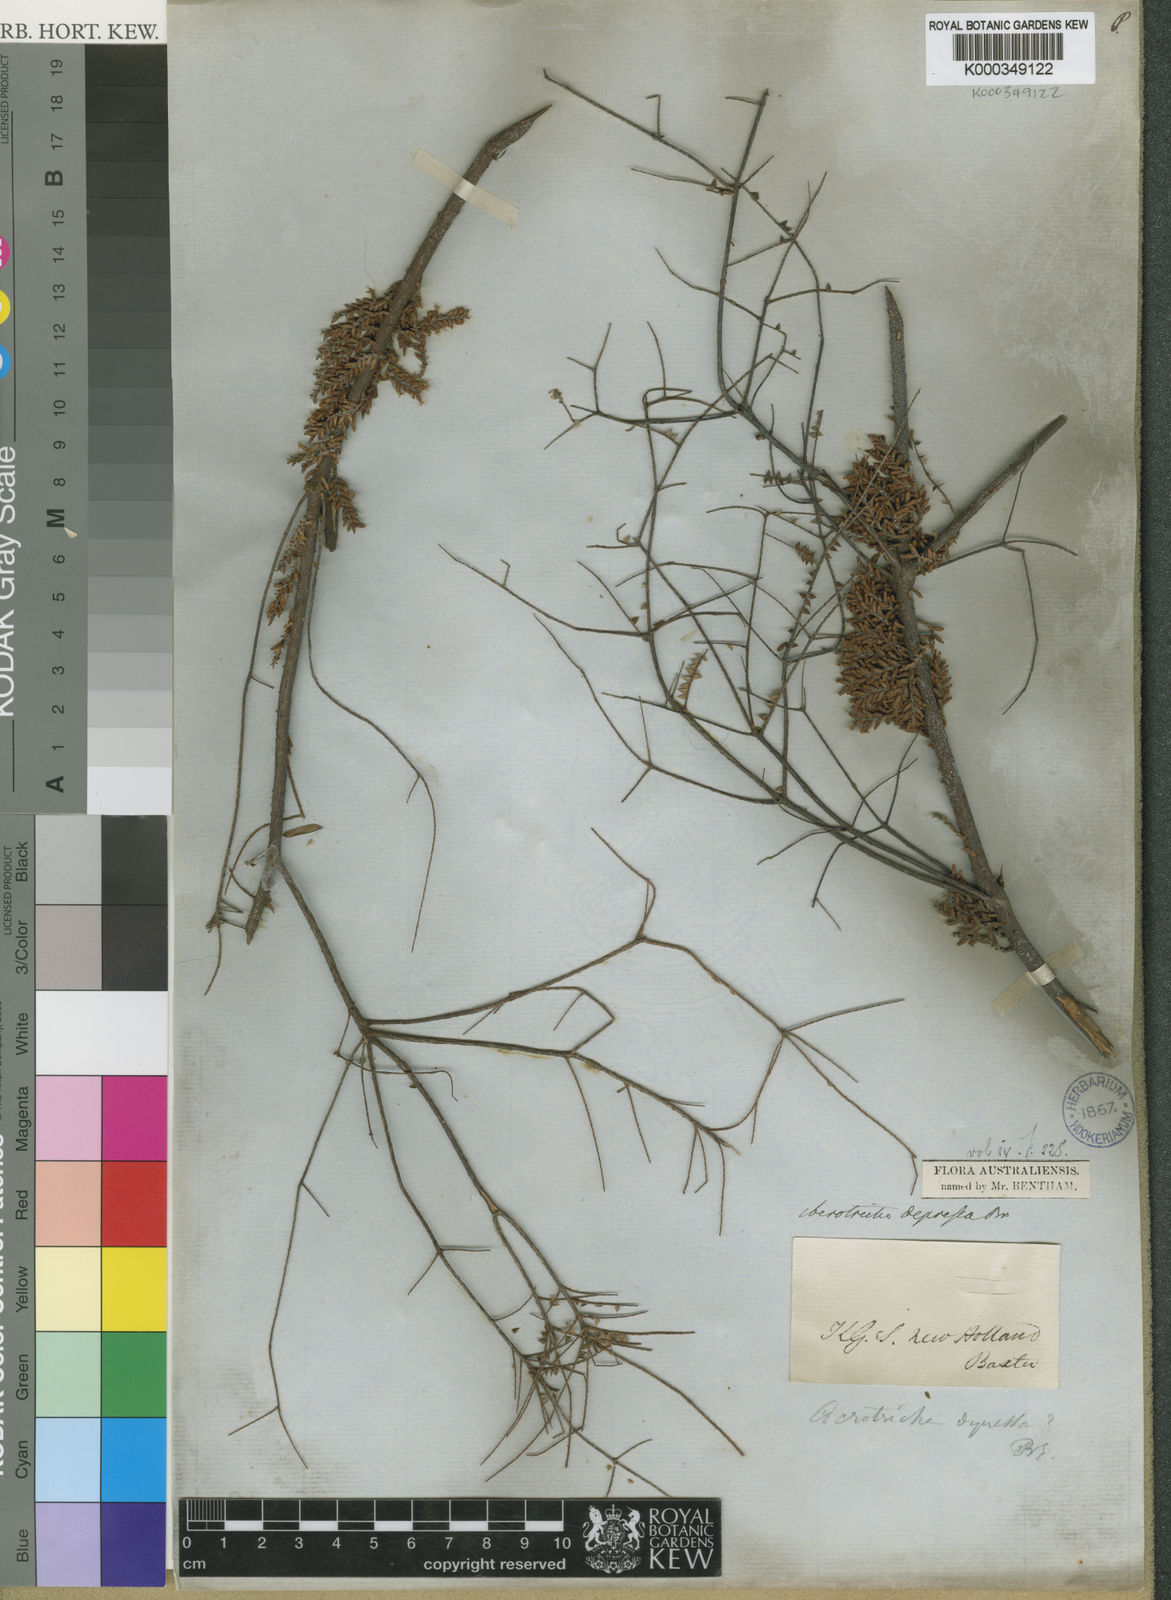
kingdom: Plantae
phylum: Tracheophyta
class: Magnoliopsida
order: Ericales
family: Ericaceae
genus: Acrotriche
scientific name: Acrotriche depressa
